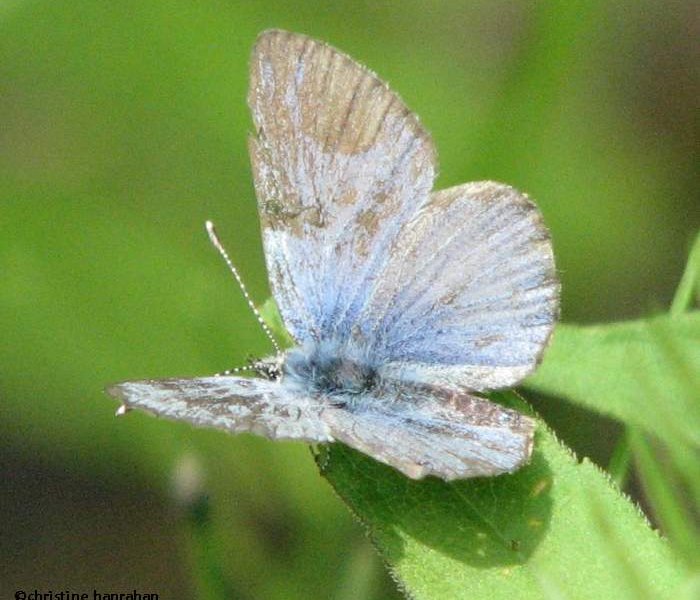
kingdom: Animalia
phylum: Arthropoda
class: Insecta
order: Lepidoptera
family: Lycaenidae
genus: Celastrina
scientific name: Celastrina lucia
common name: Northern Spring Azure
